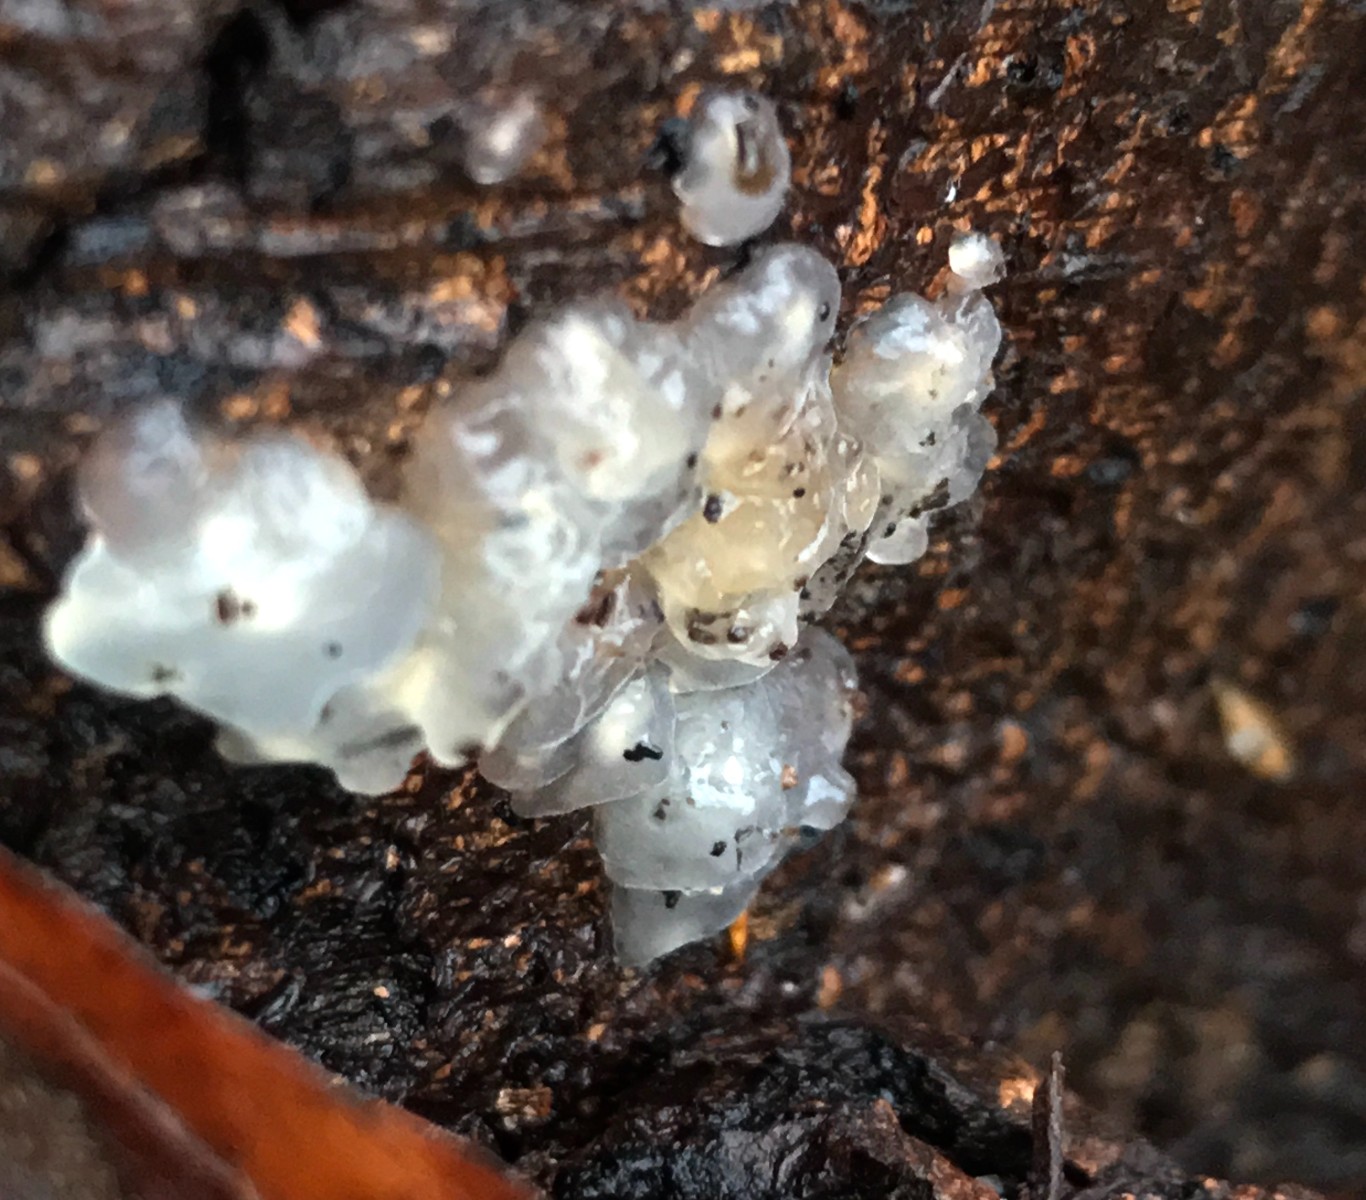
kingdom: Fungi
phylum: Basidiomycota
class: Agaricomycetes
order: Auriculariales
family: Hyaloriaceae
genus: Myxarium
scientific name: Myxarium nucleatum
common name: klar bævretop
